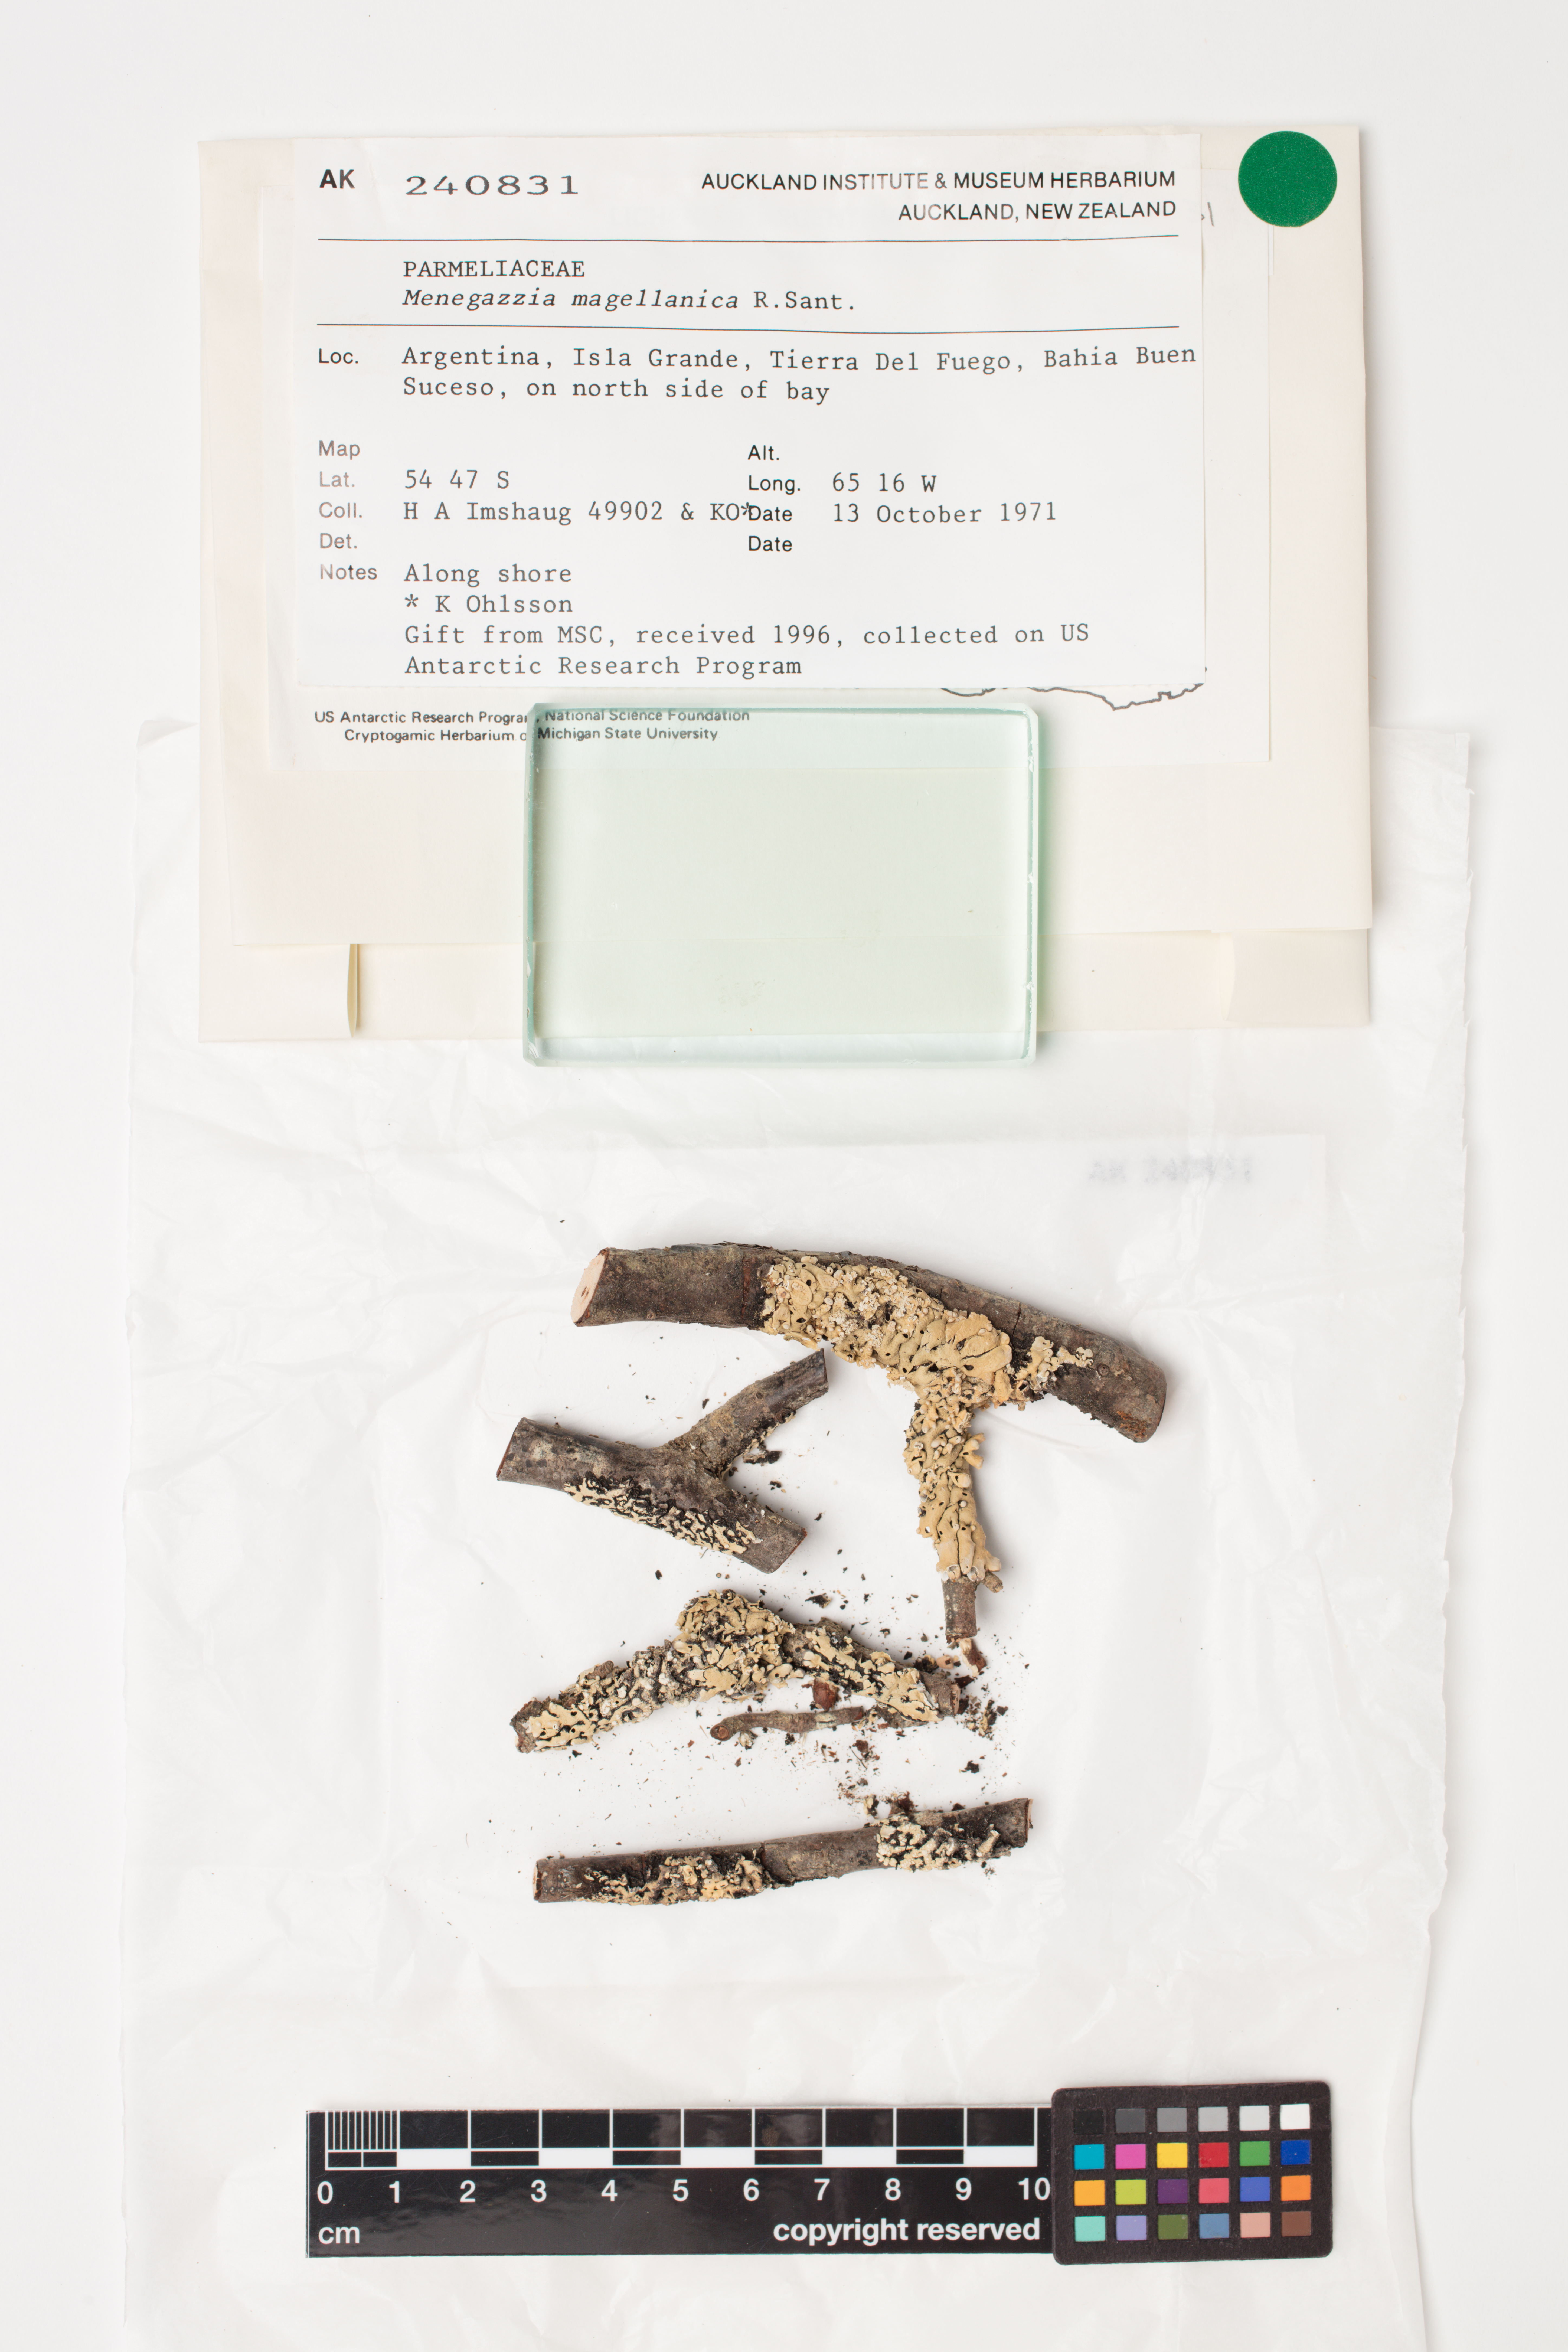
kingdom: Fungi
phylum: Ascomycota
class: Lecanoromycetes
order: Lecanorales
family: Parmeliaceae
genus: Menegazzia
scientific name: Menegazzia subpertusa
